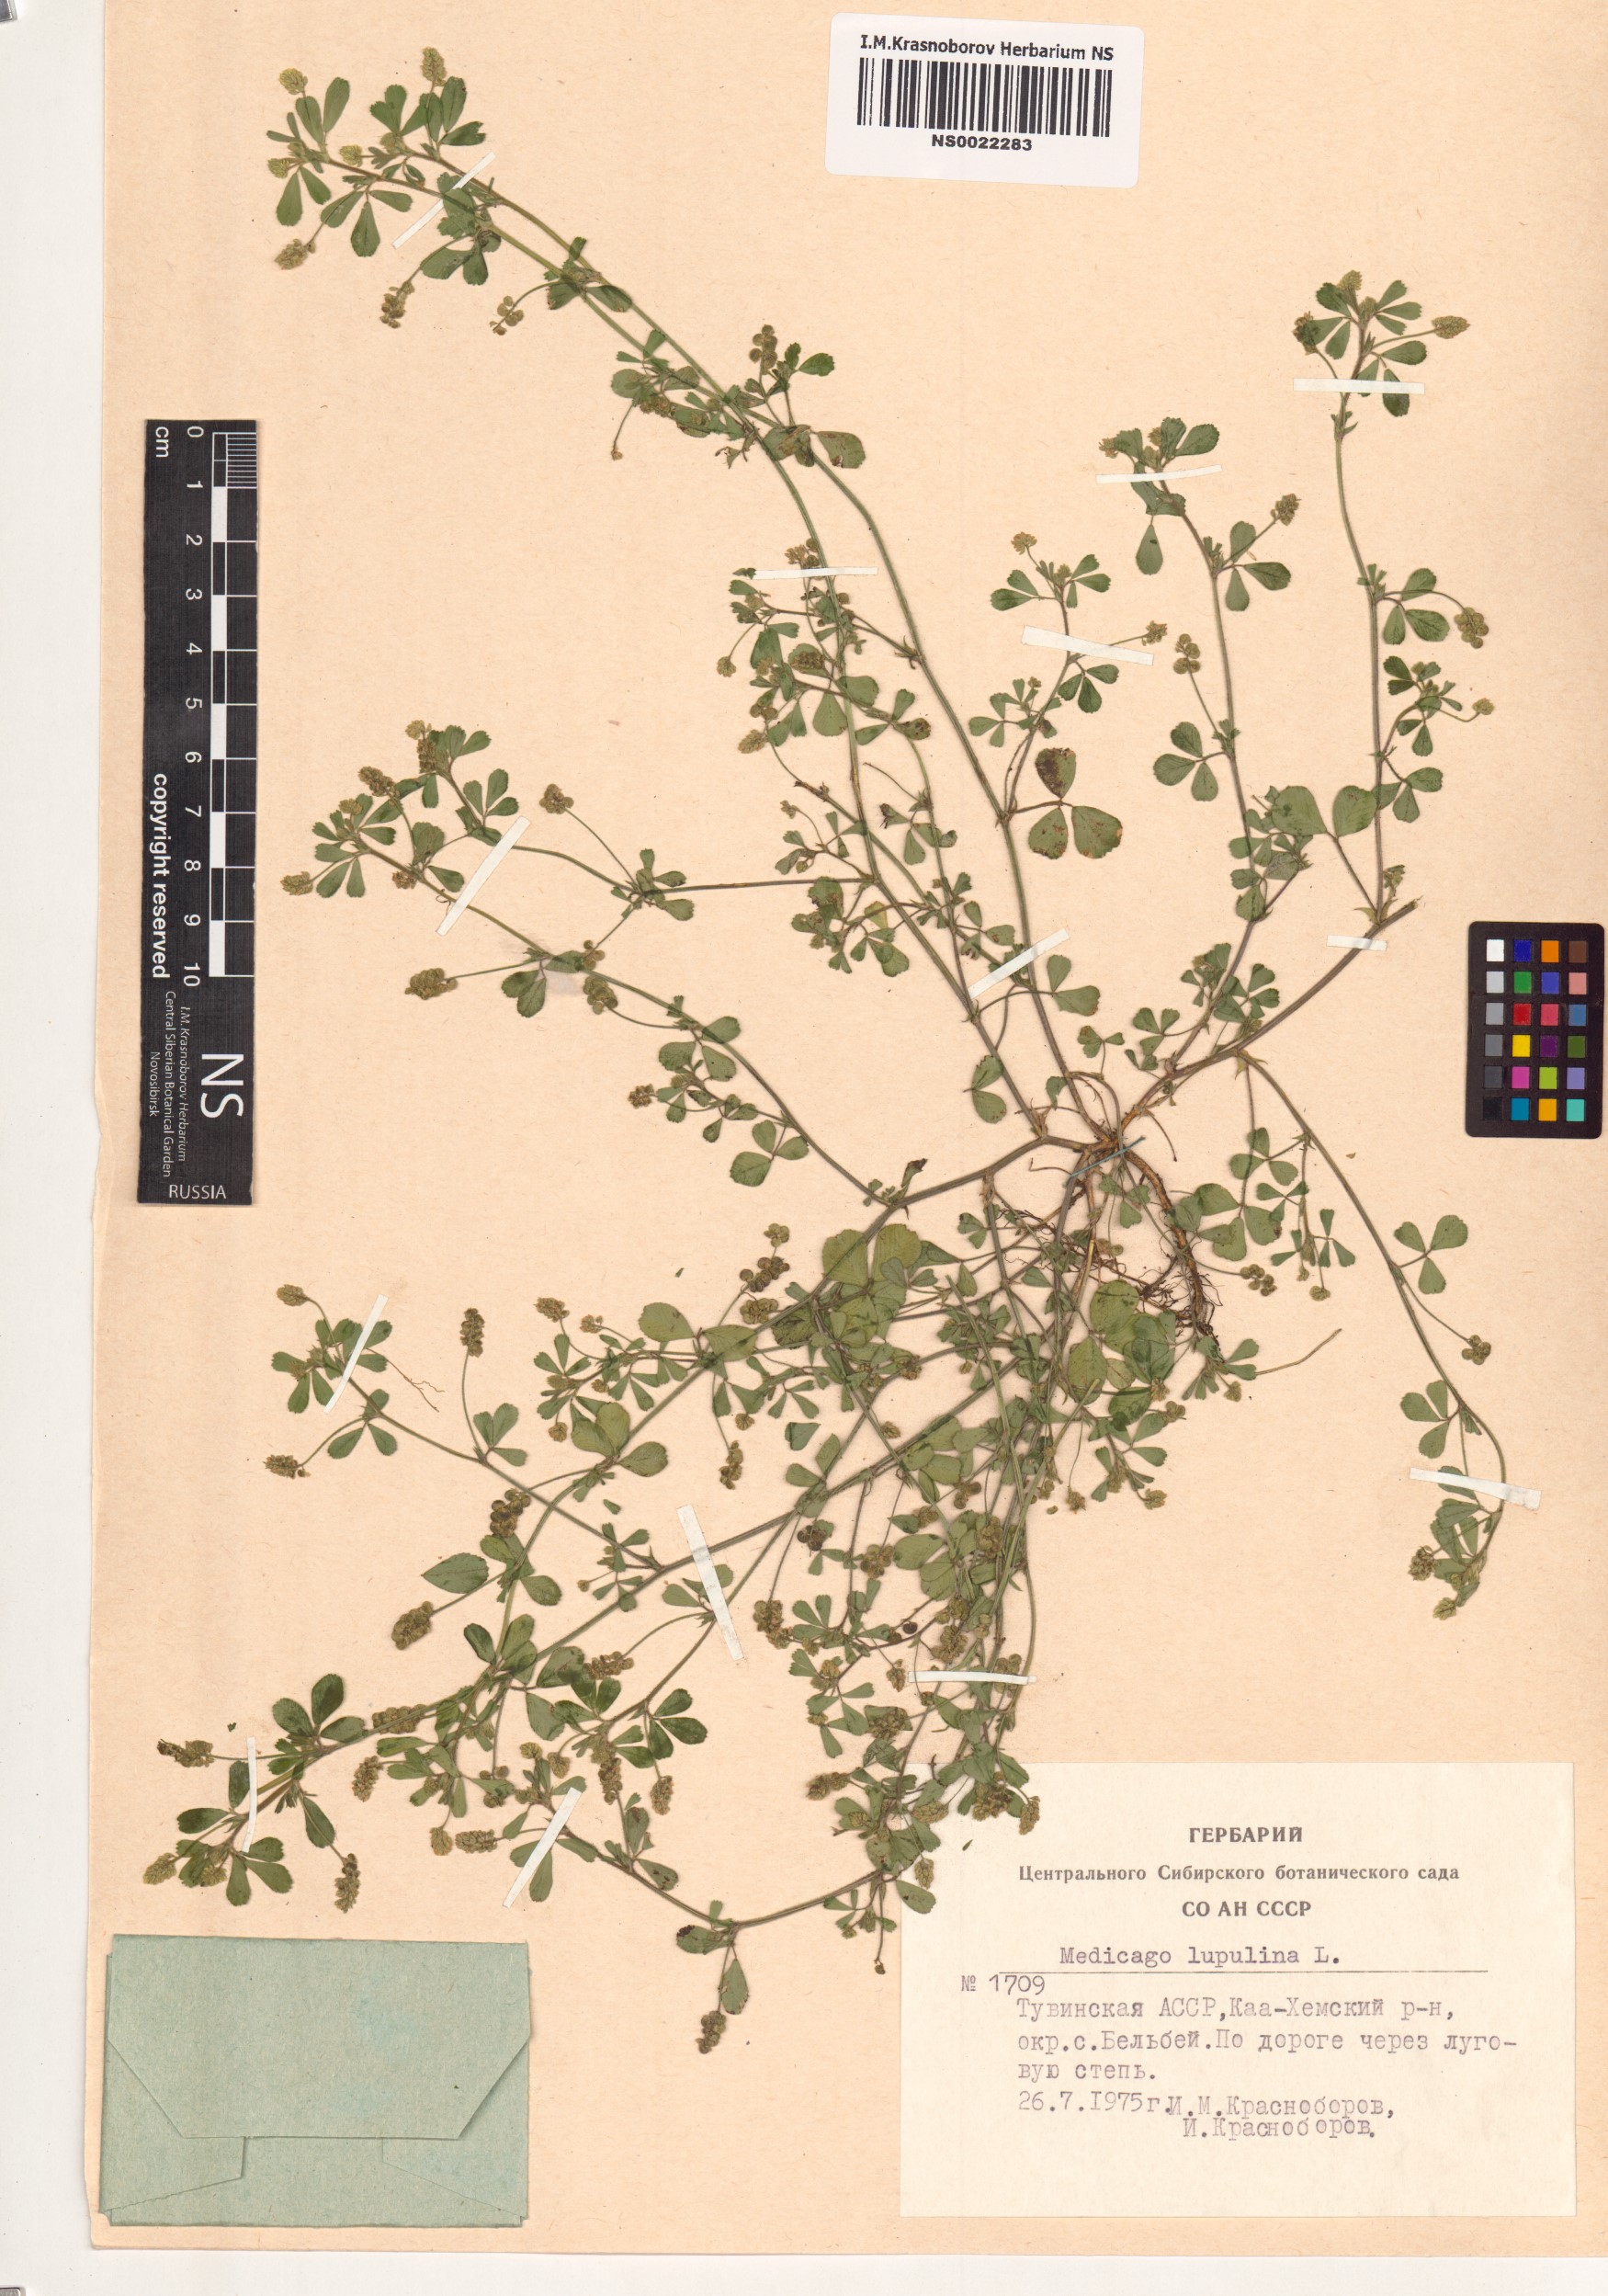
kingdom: Plantae
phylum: Tracheophyta
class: Magnoliopsida
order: Fabales
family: Fabaceae
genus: Medicago
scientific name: Medicago lupulina
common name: Black medick
